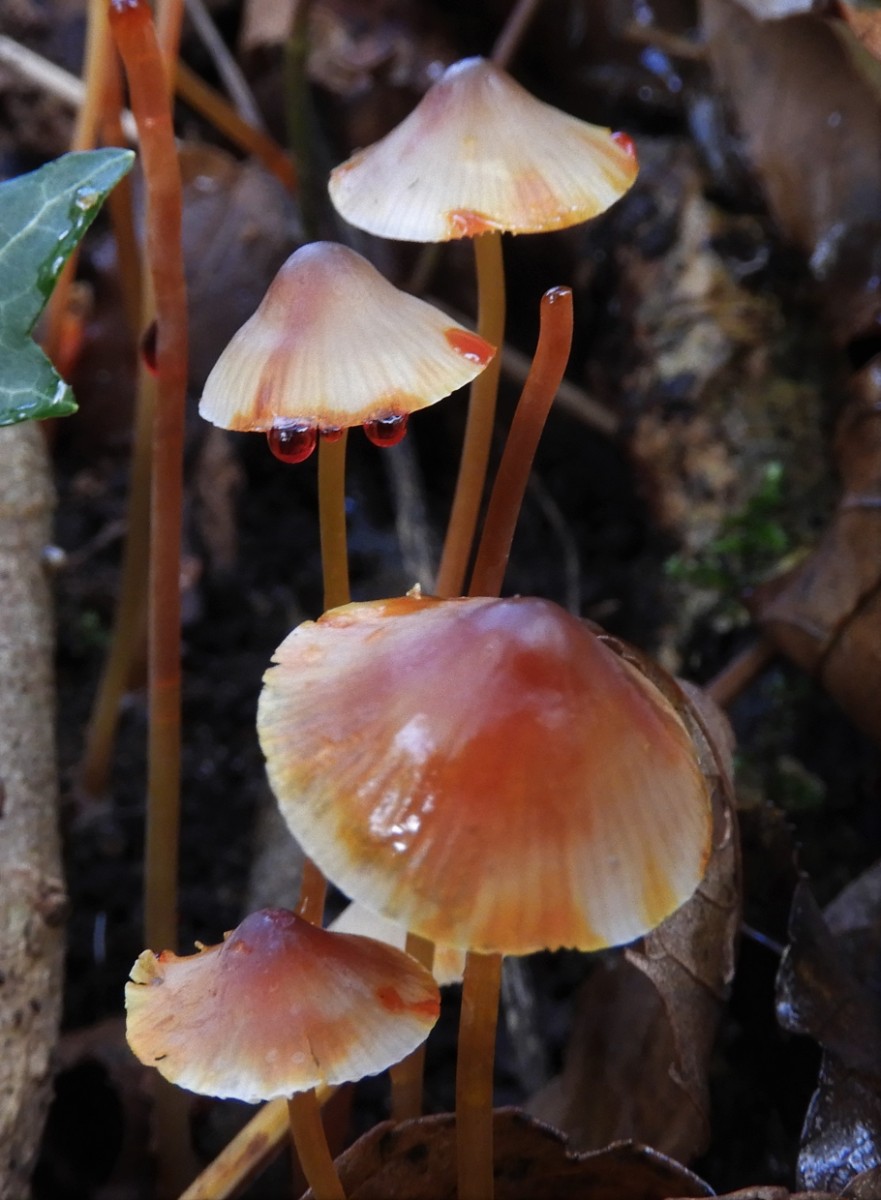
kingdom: Fungi
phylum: Basidiomycota
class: Agaricomycetes
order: Agaricales
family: Mycenaceae
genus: Mycena
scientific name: Mycena crocata
